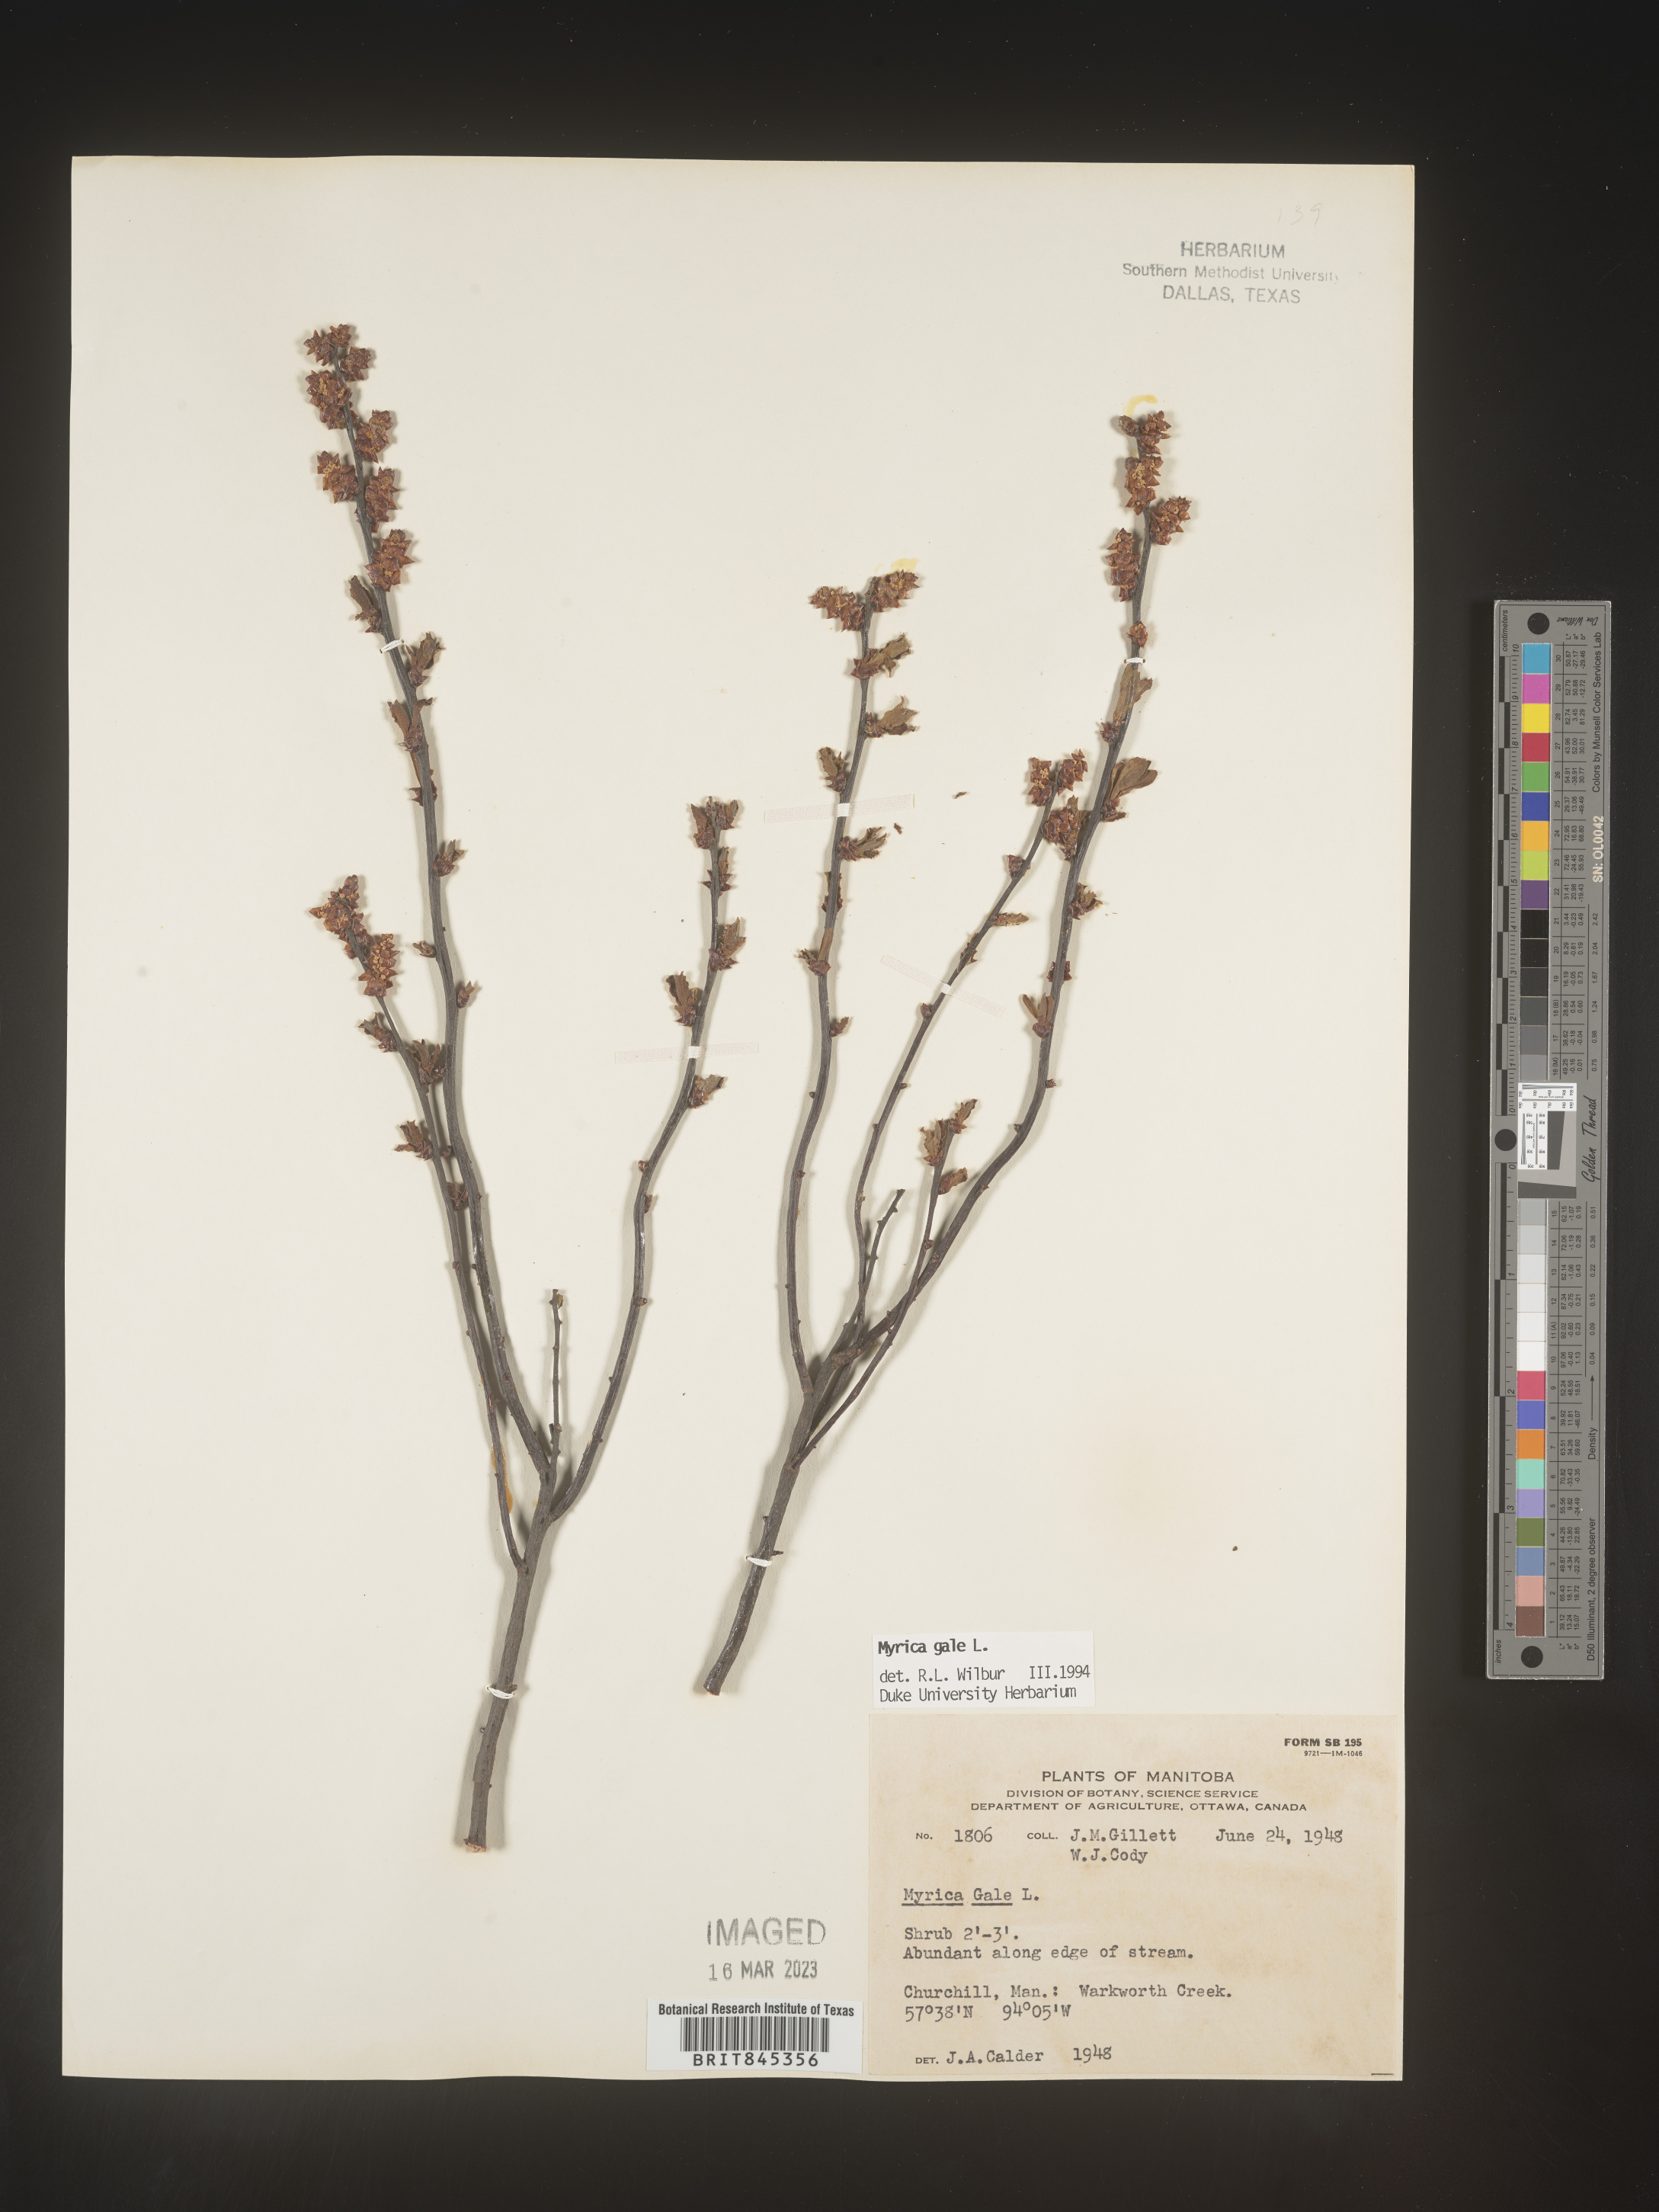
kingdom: Plantae
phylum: Tracheophyta
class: Magnoliopsida
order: Fagales
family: Myricaceae
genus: Myrica
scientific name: Myrica gale
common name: Sweet gale
